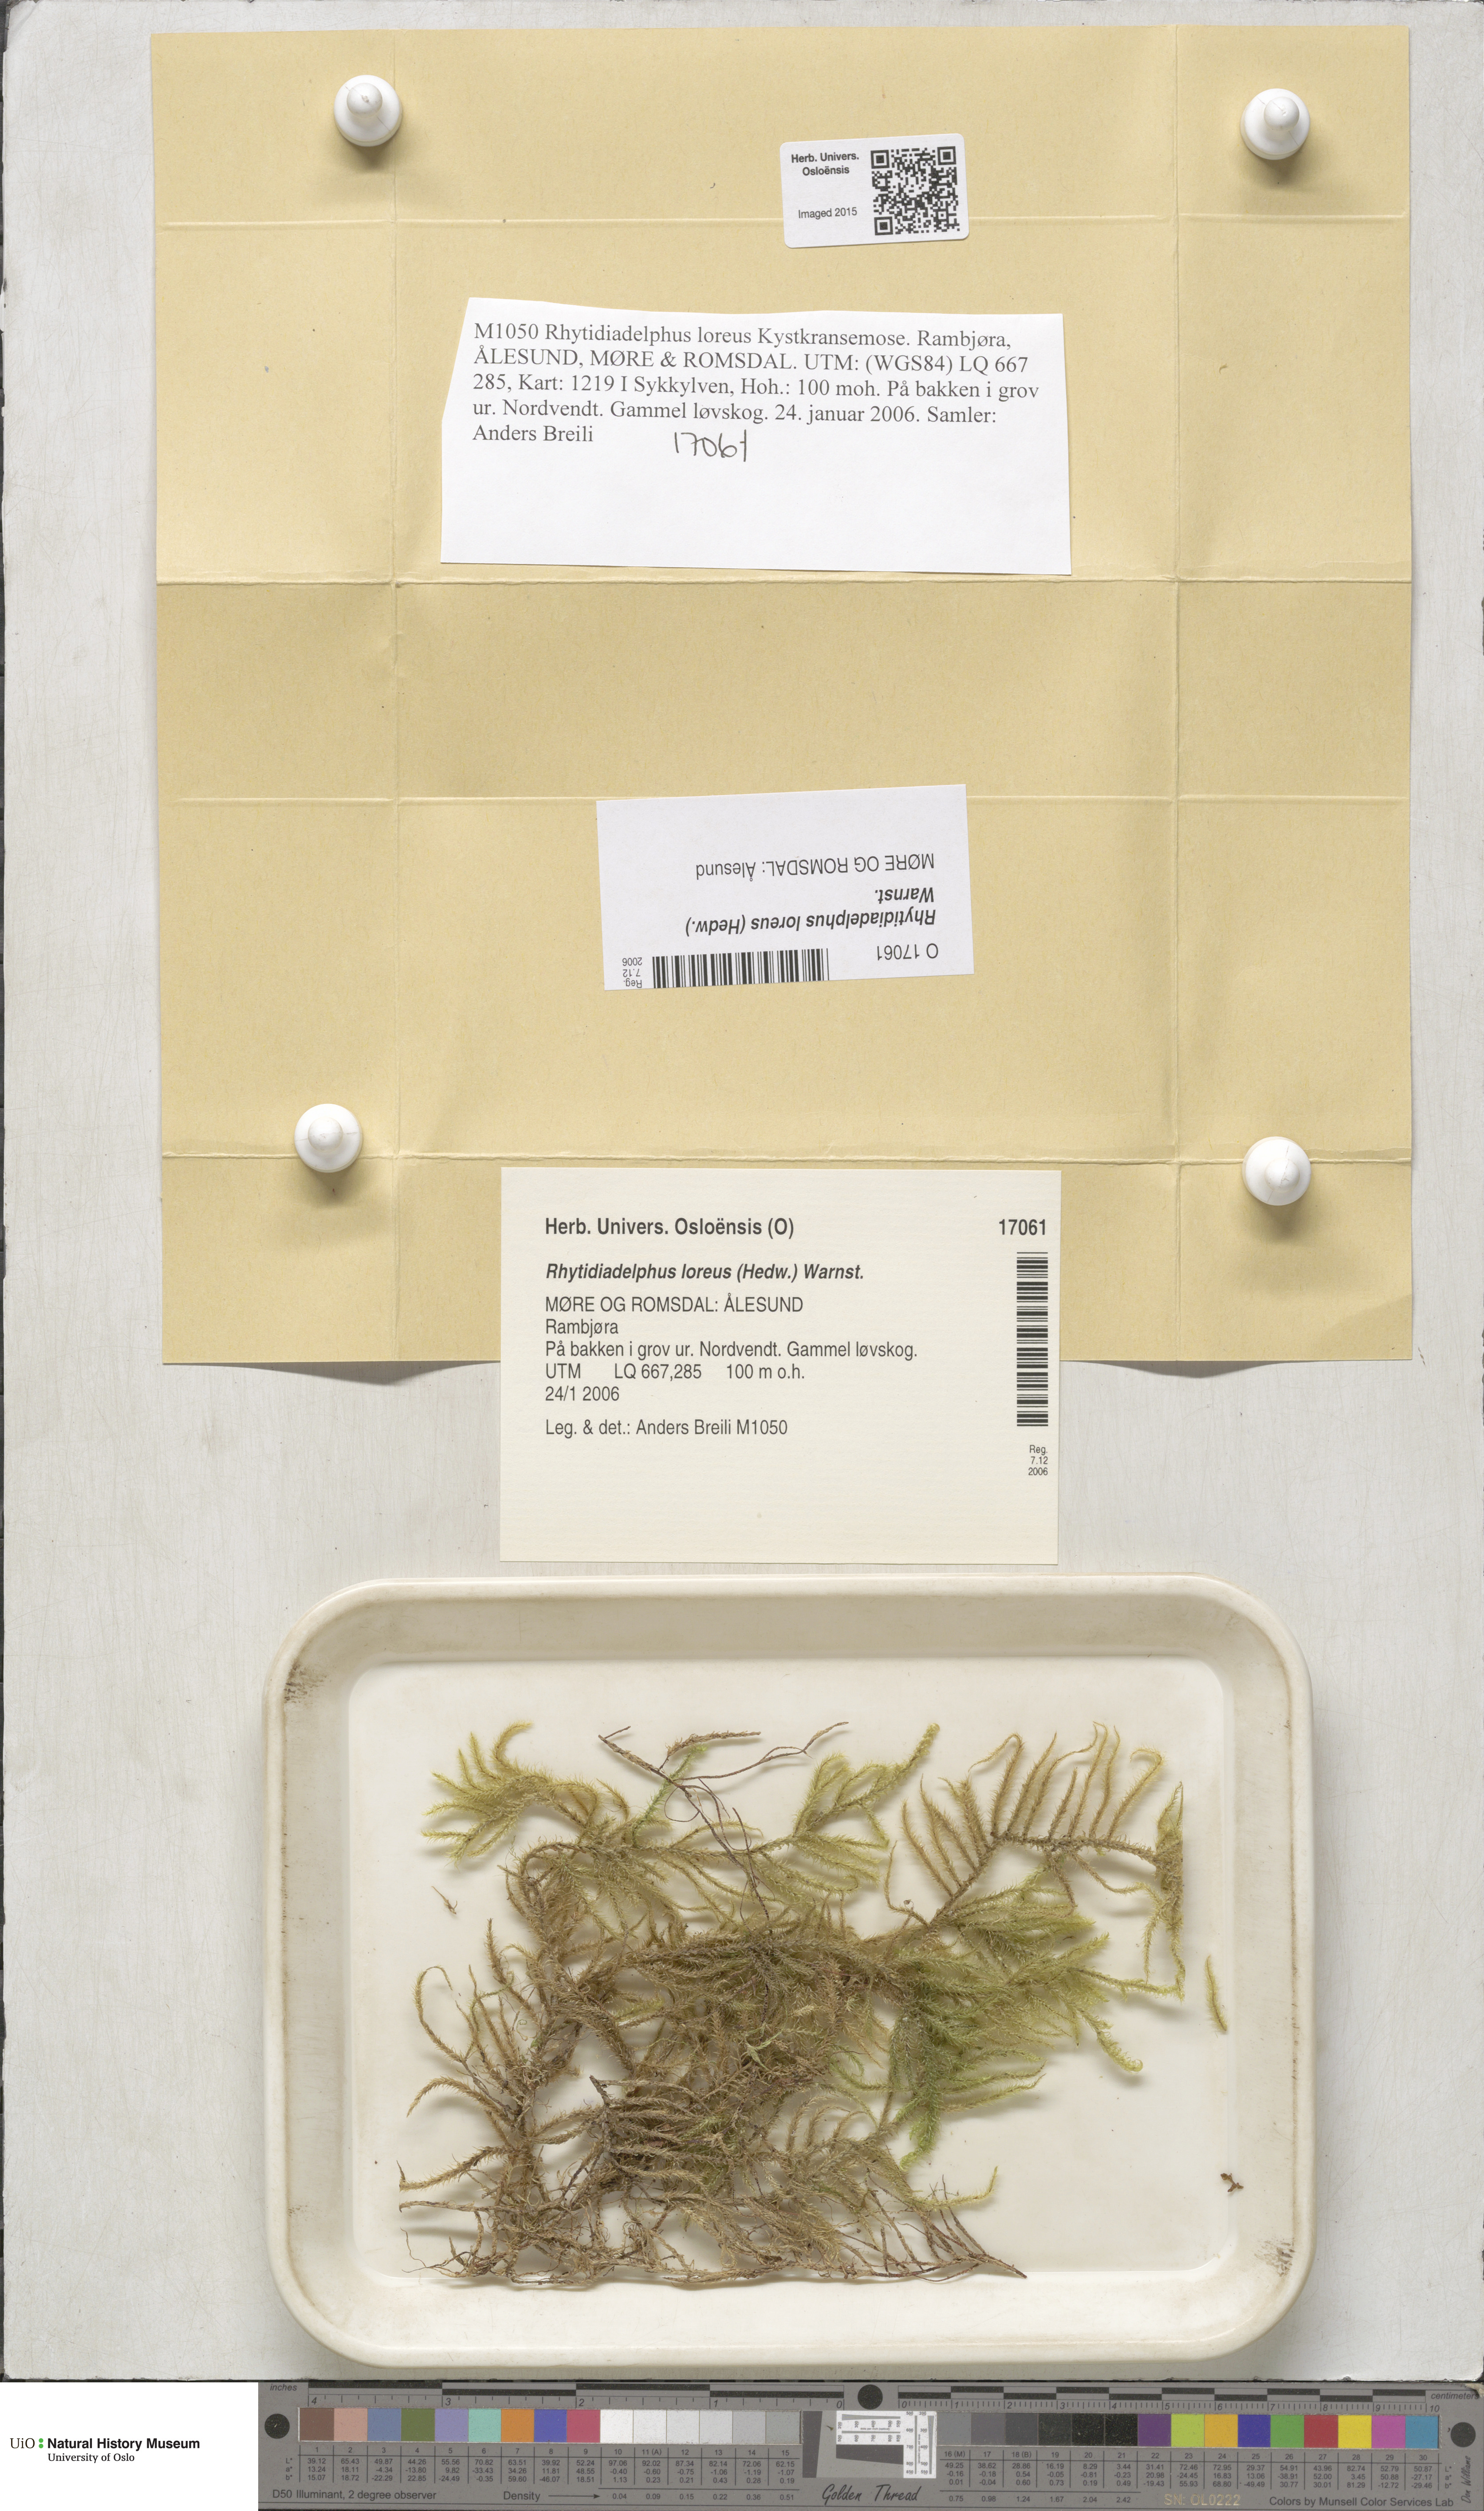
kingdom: Plantae
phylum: Bryophyta
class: Bryopsida
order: Hypnales
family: Hylocomiaceae
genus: Rhytidiadelphus
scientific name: Rhytidiadelphus loreus
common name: Lanky moss
